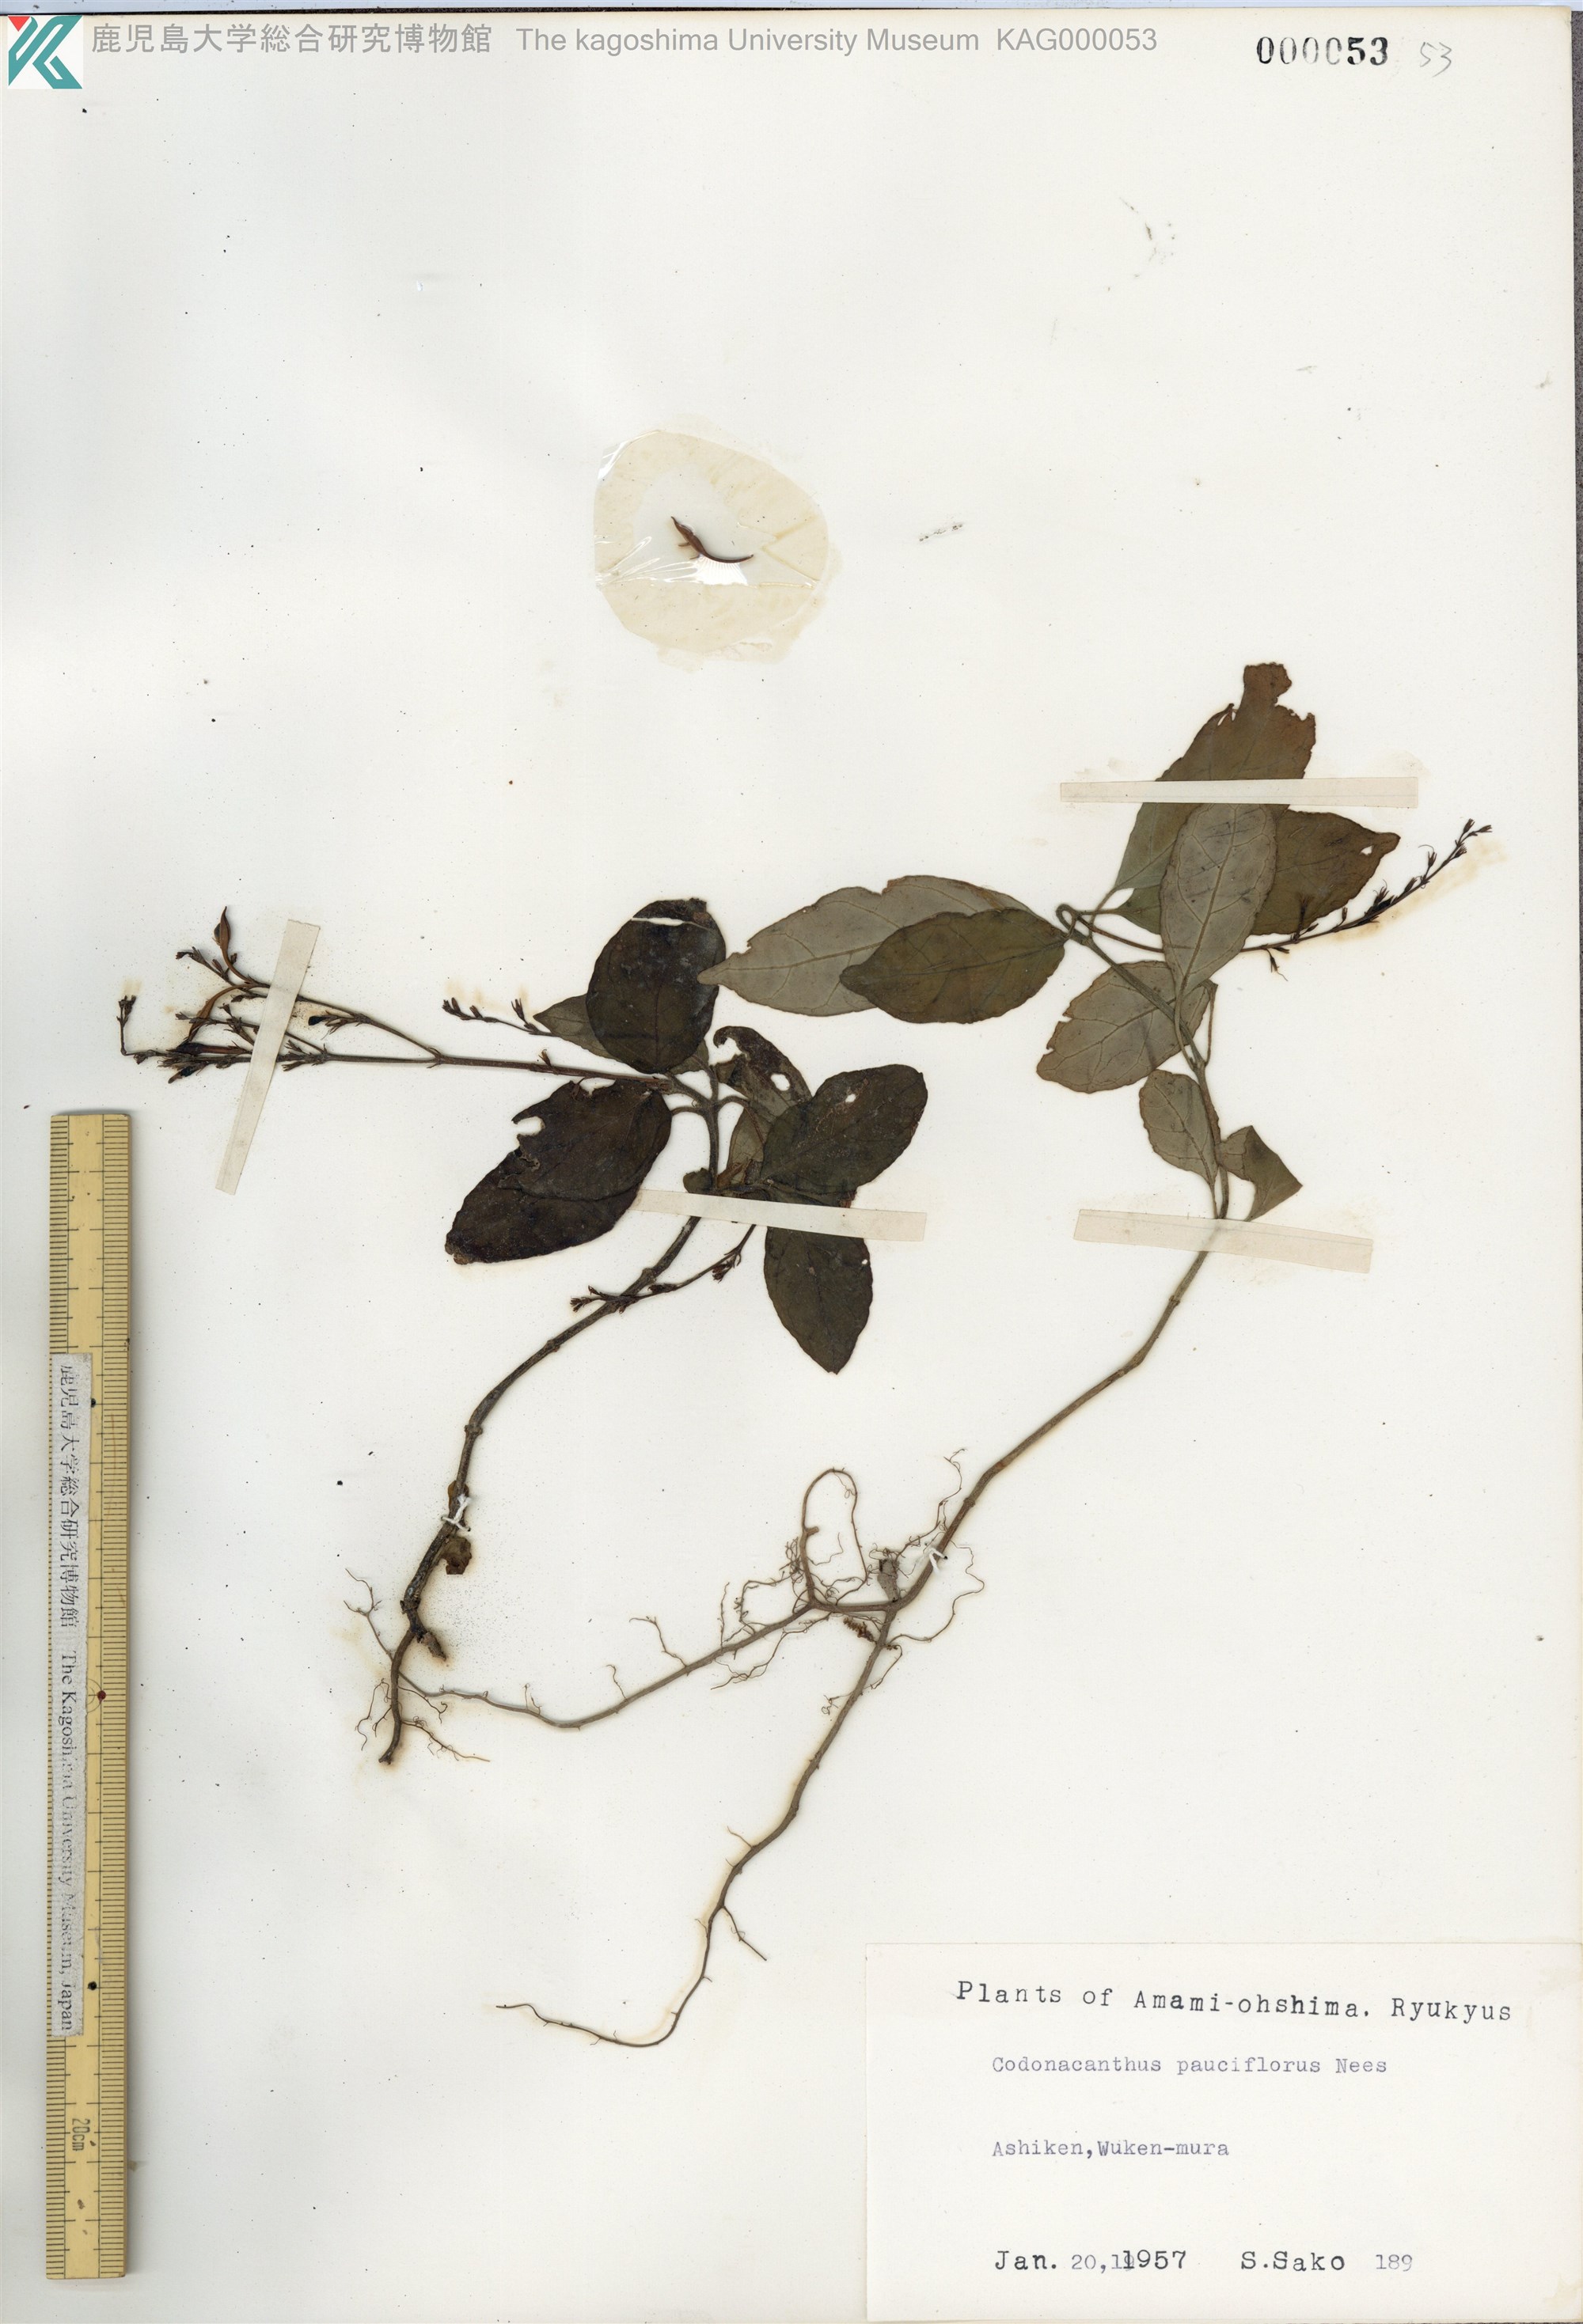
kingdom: Plantae
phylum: Tracheophyta
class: Magnoliopsida
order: Lamiales
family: Acanthaceae
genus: Codonacanthus
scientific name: Codonacanthus pauciflorus
